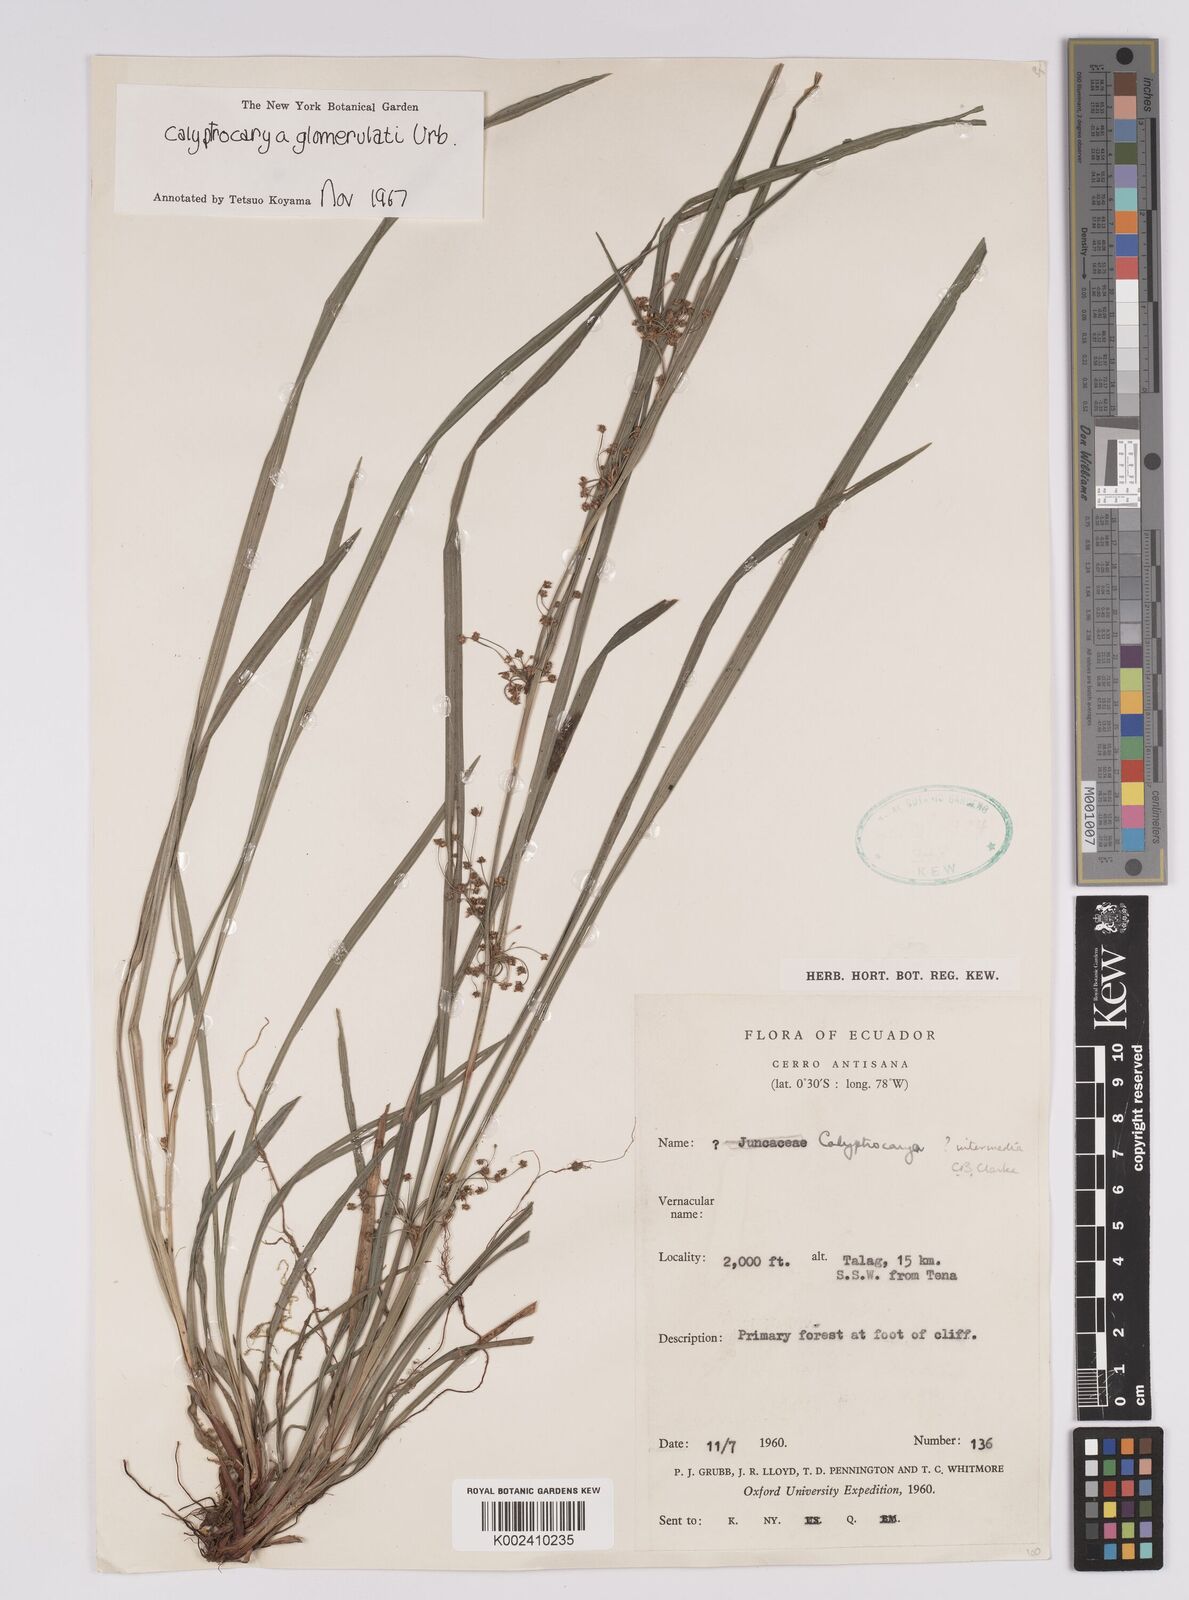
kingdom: Plantae
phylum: Tracheophyta
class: Liliopsida
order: Poales
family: Cyperaceae
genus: Calyptrocarya
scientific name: Calyptrocarya glomerulata
